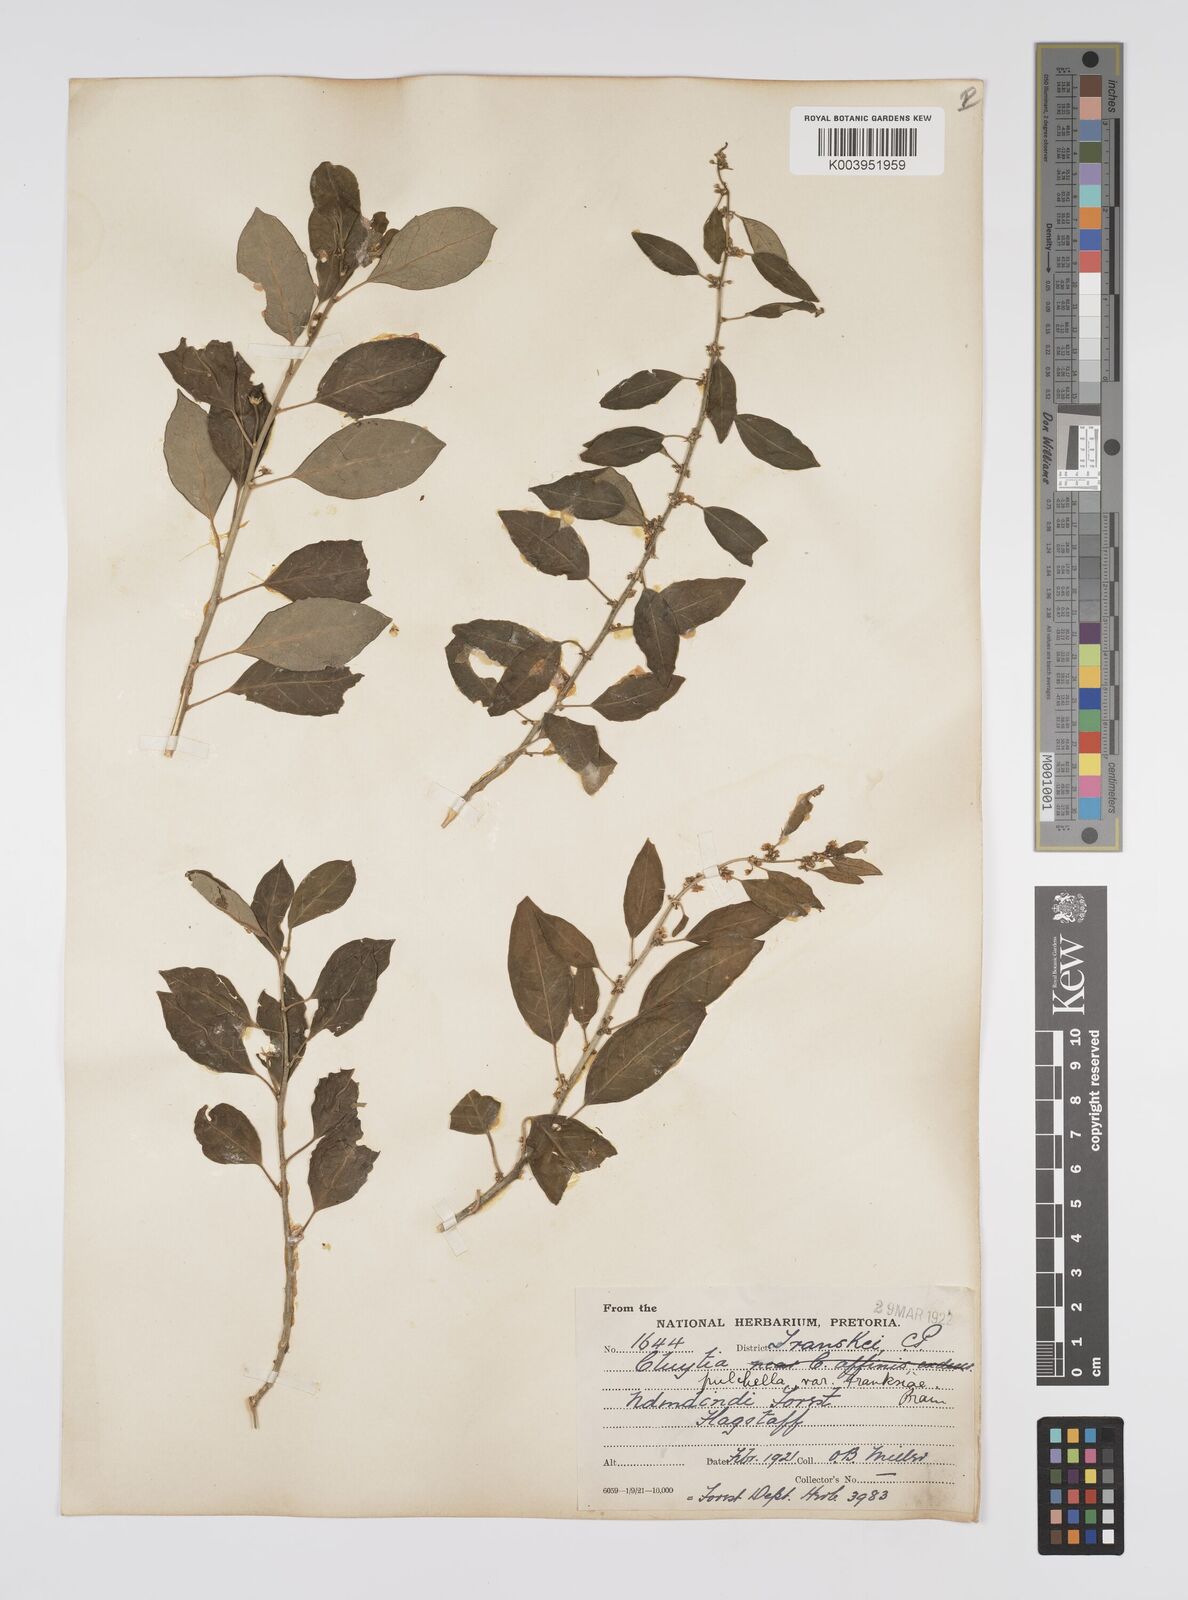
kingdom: Plantae
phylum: Tracheophyta
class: Magnoliopsida
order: Malpighiales
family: Peraceae
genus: Clutia
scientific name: Clutia pulchella
